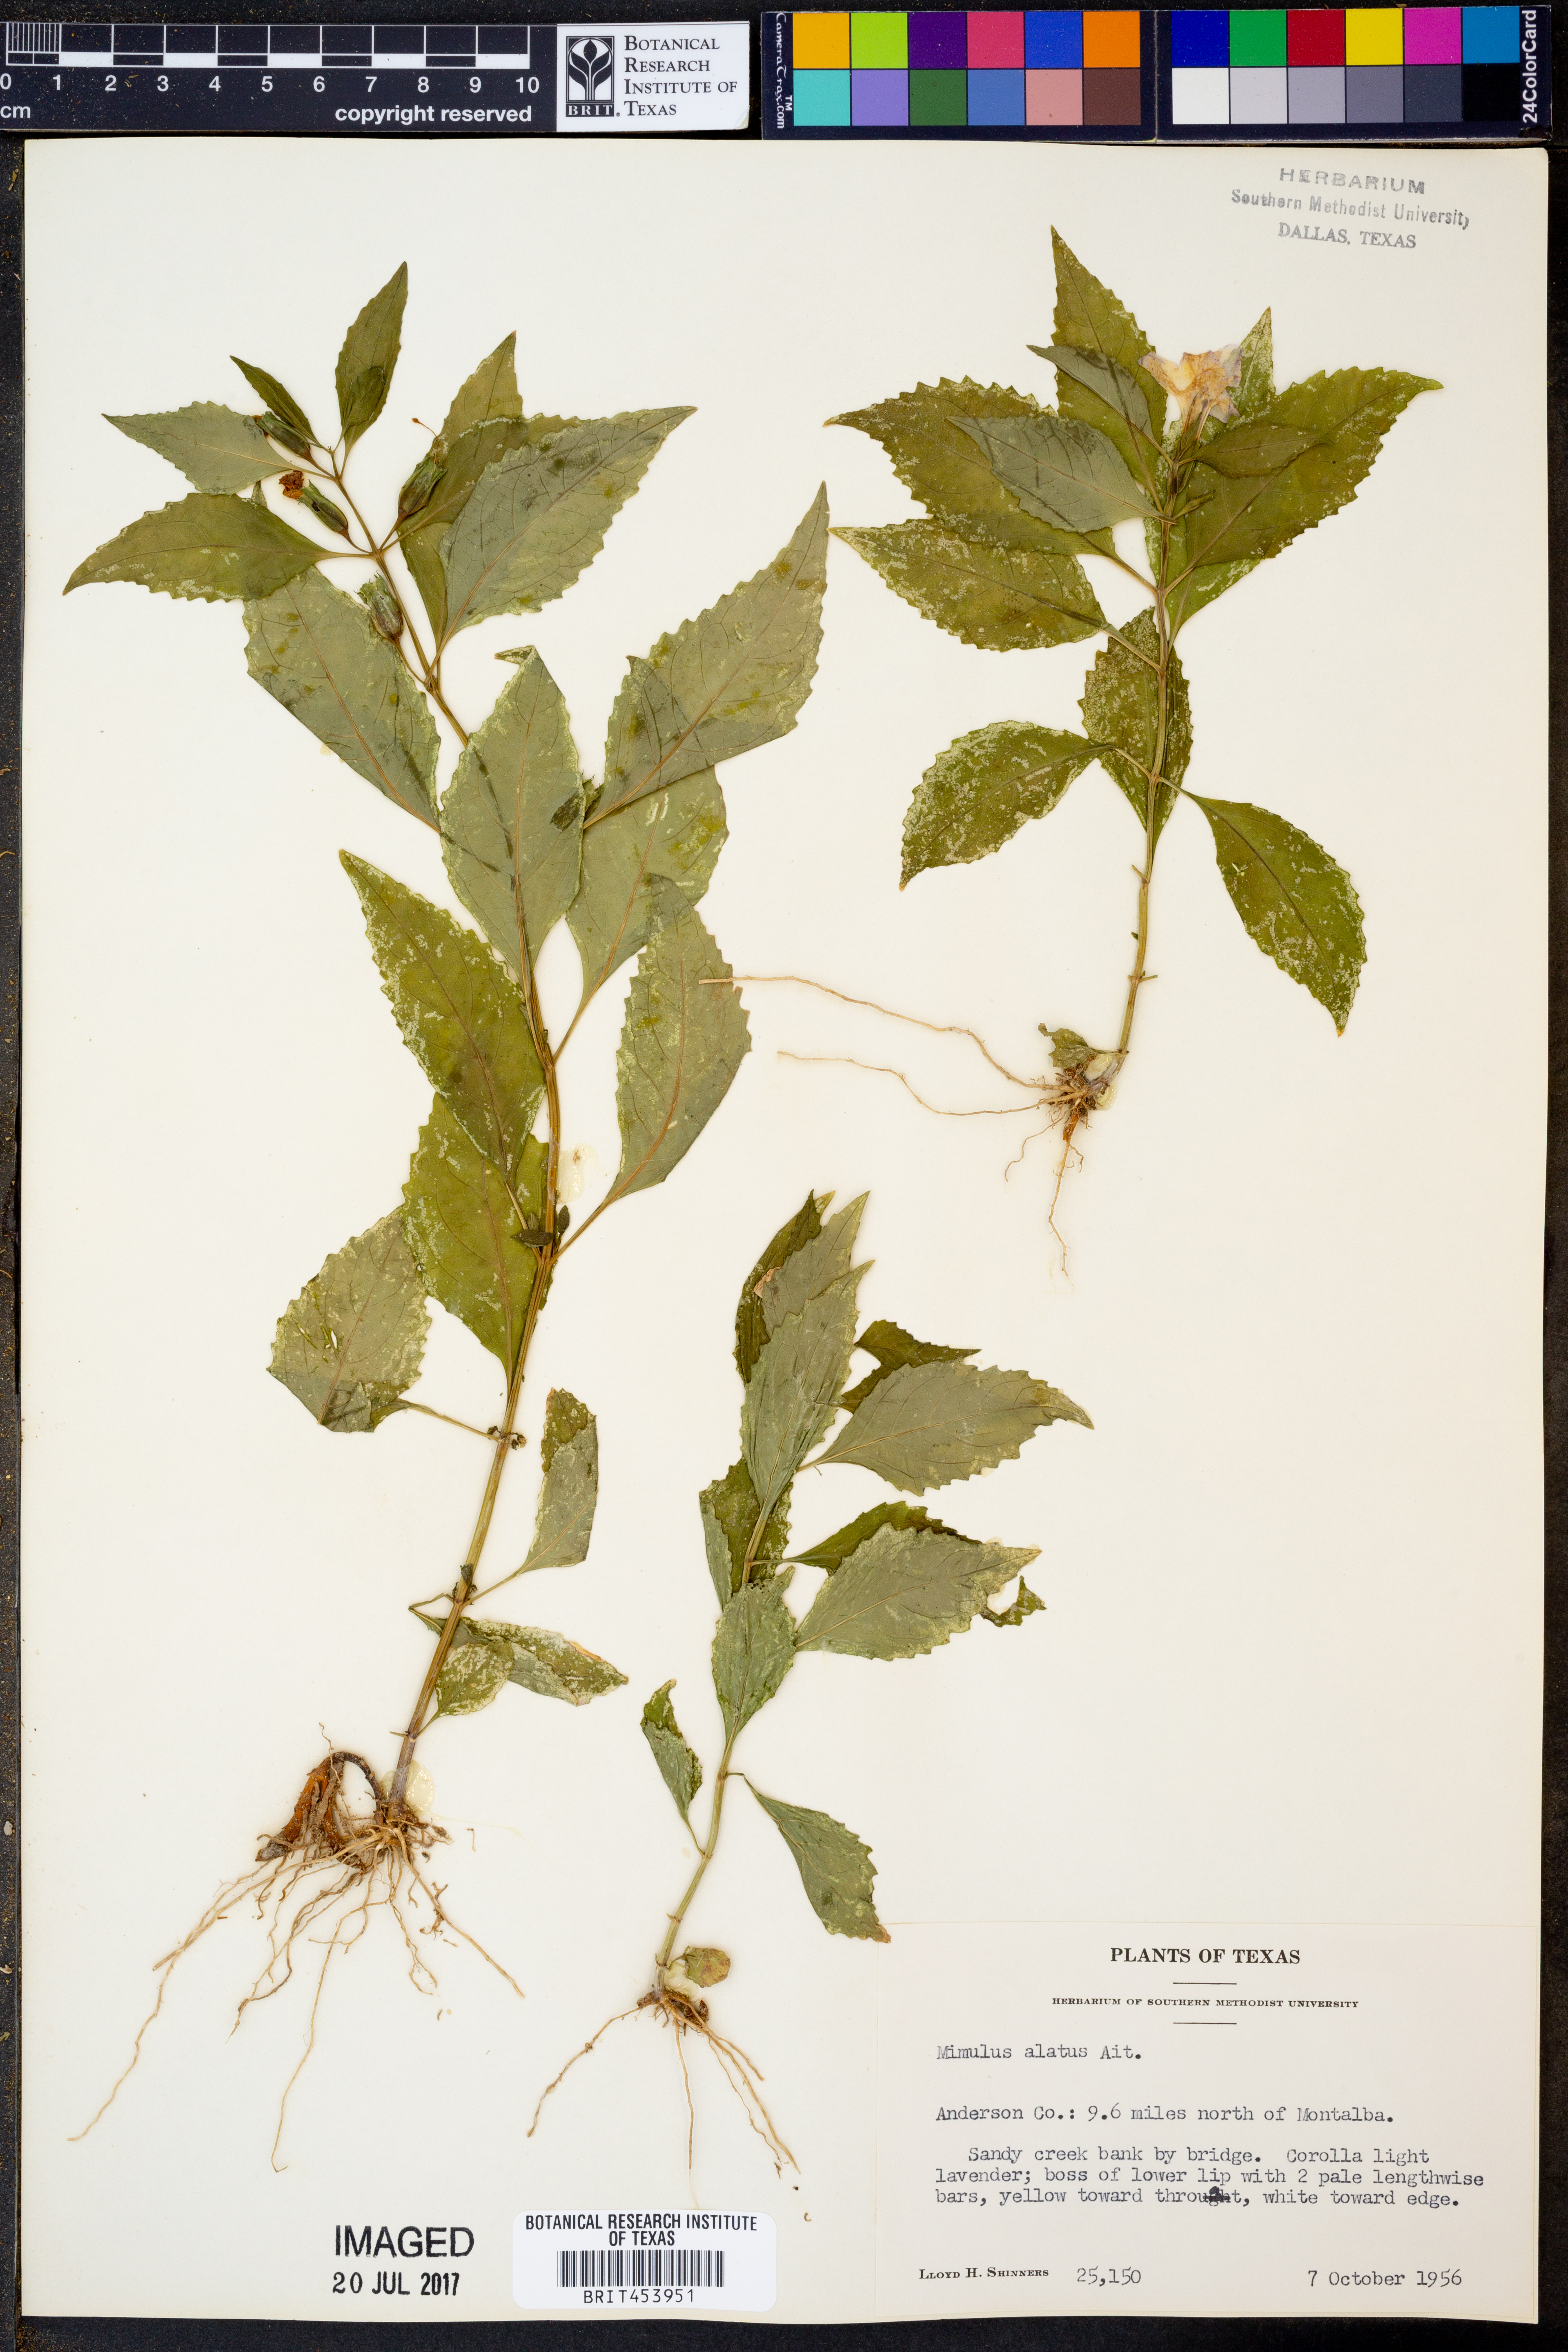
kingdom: Plantae
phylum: Tracheophyta
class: Magnoliopsida
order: Lamiales
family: Phrymaceae
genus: Mimulus
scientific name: Mimulus alatus
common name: Sharp-wing monkey-flower
